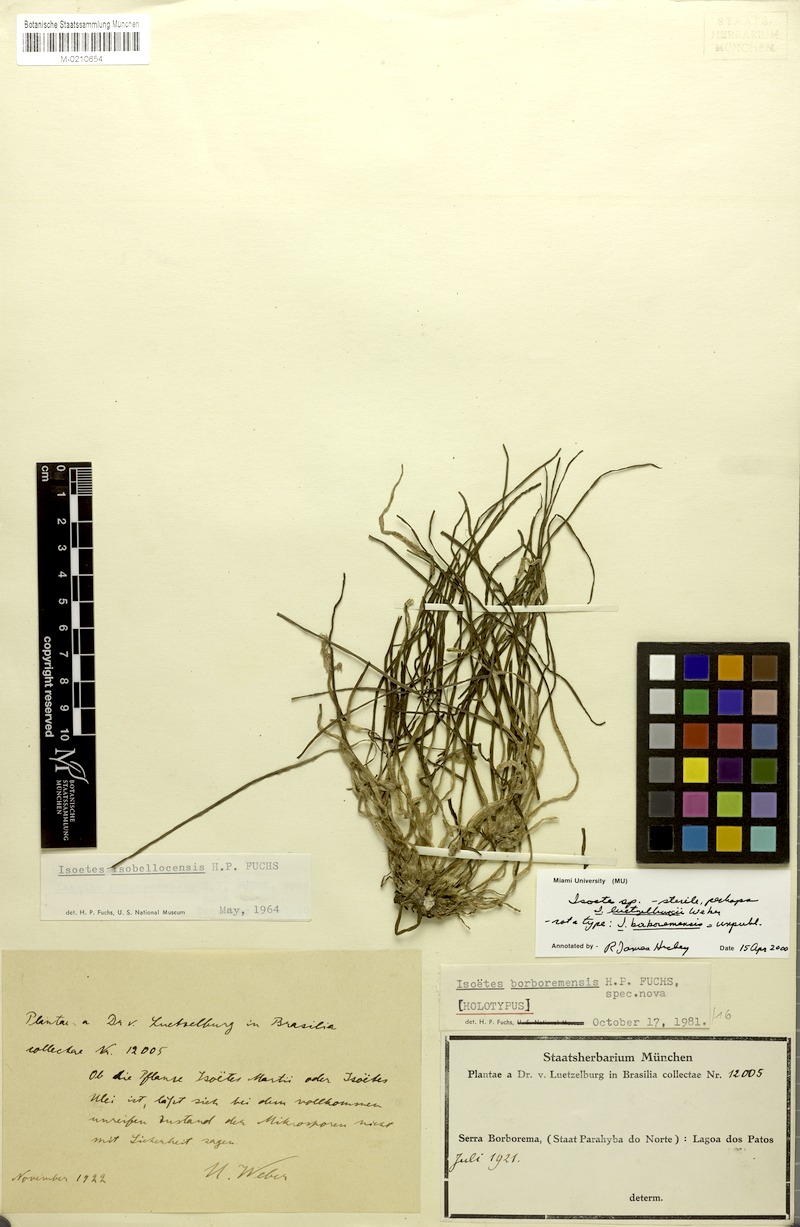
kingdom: Plantae
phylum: Tracheophyta
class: Lycopodiopsida
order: Isoetales
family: Isoetaceae
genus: Isoetes
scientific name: Isoetes
